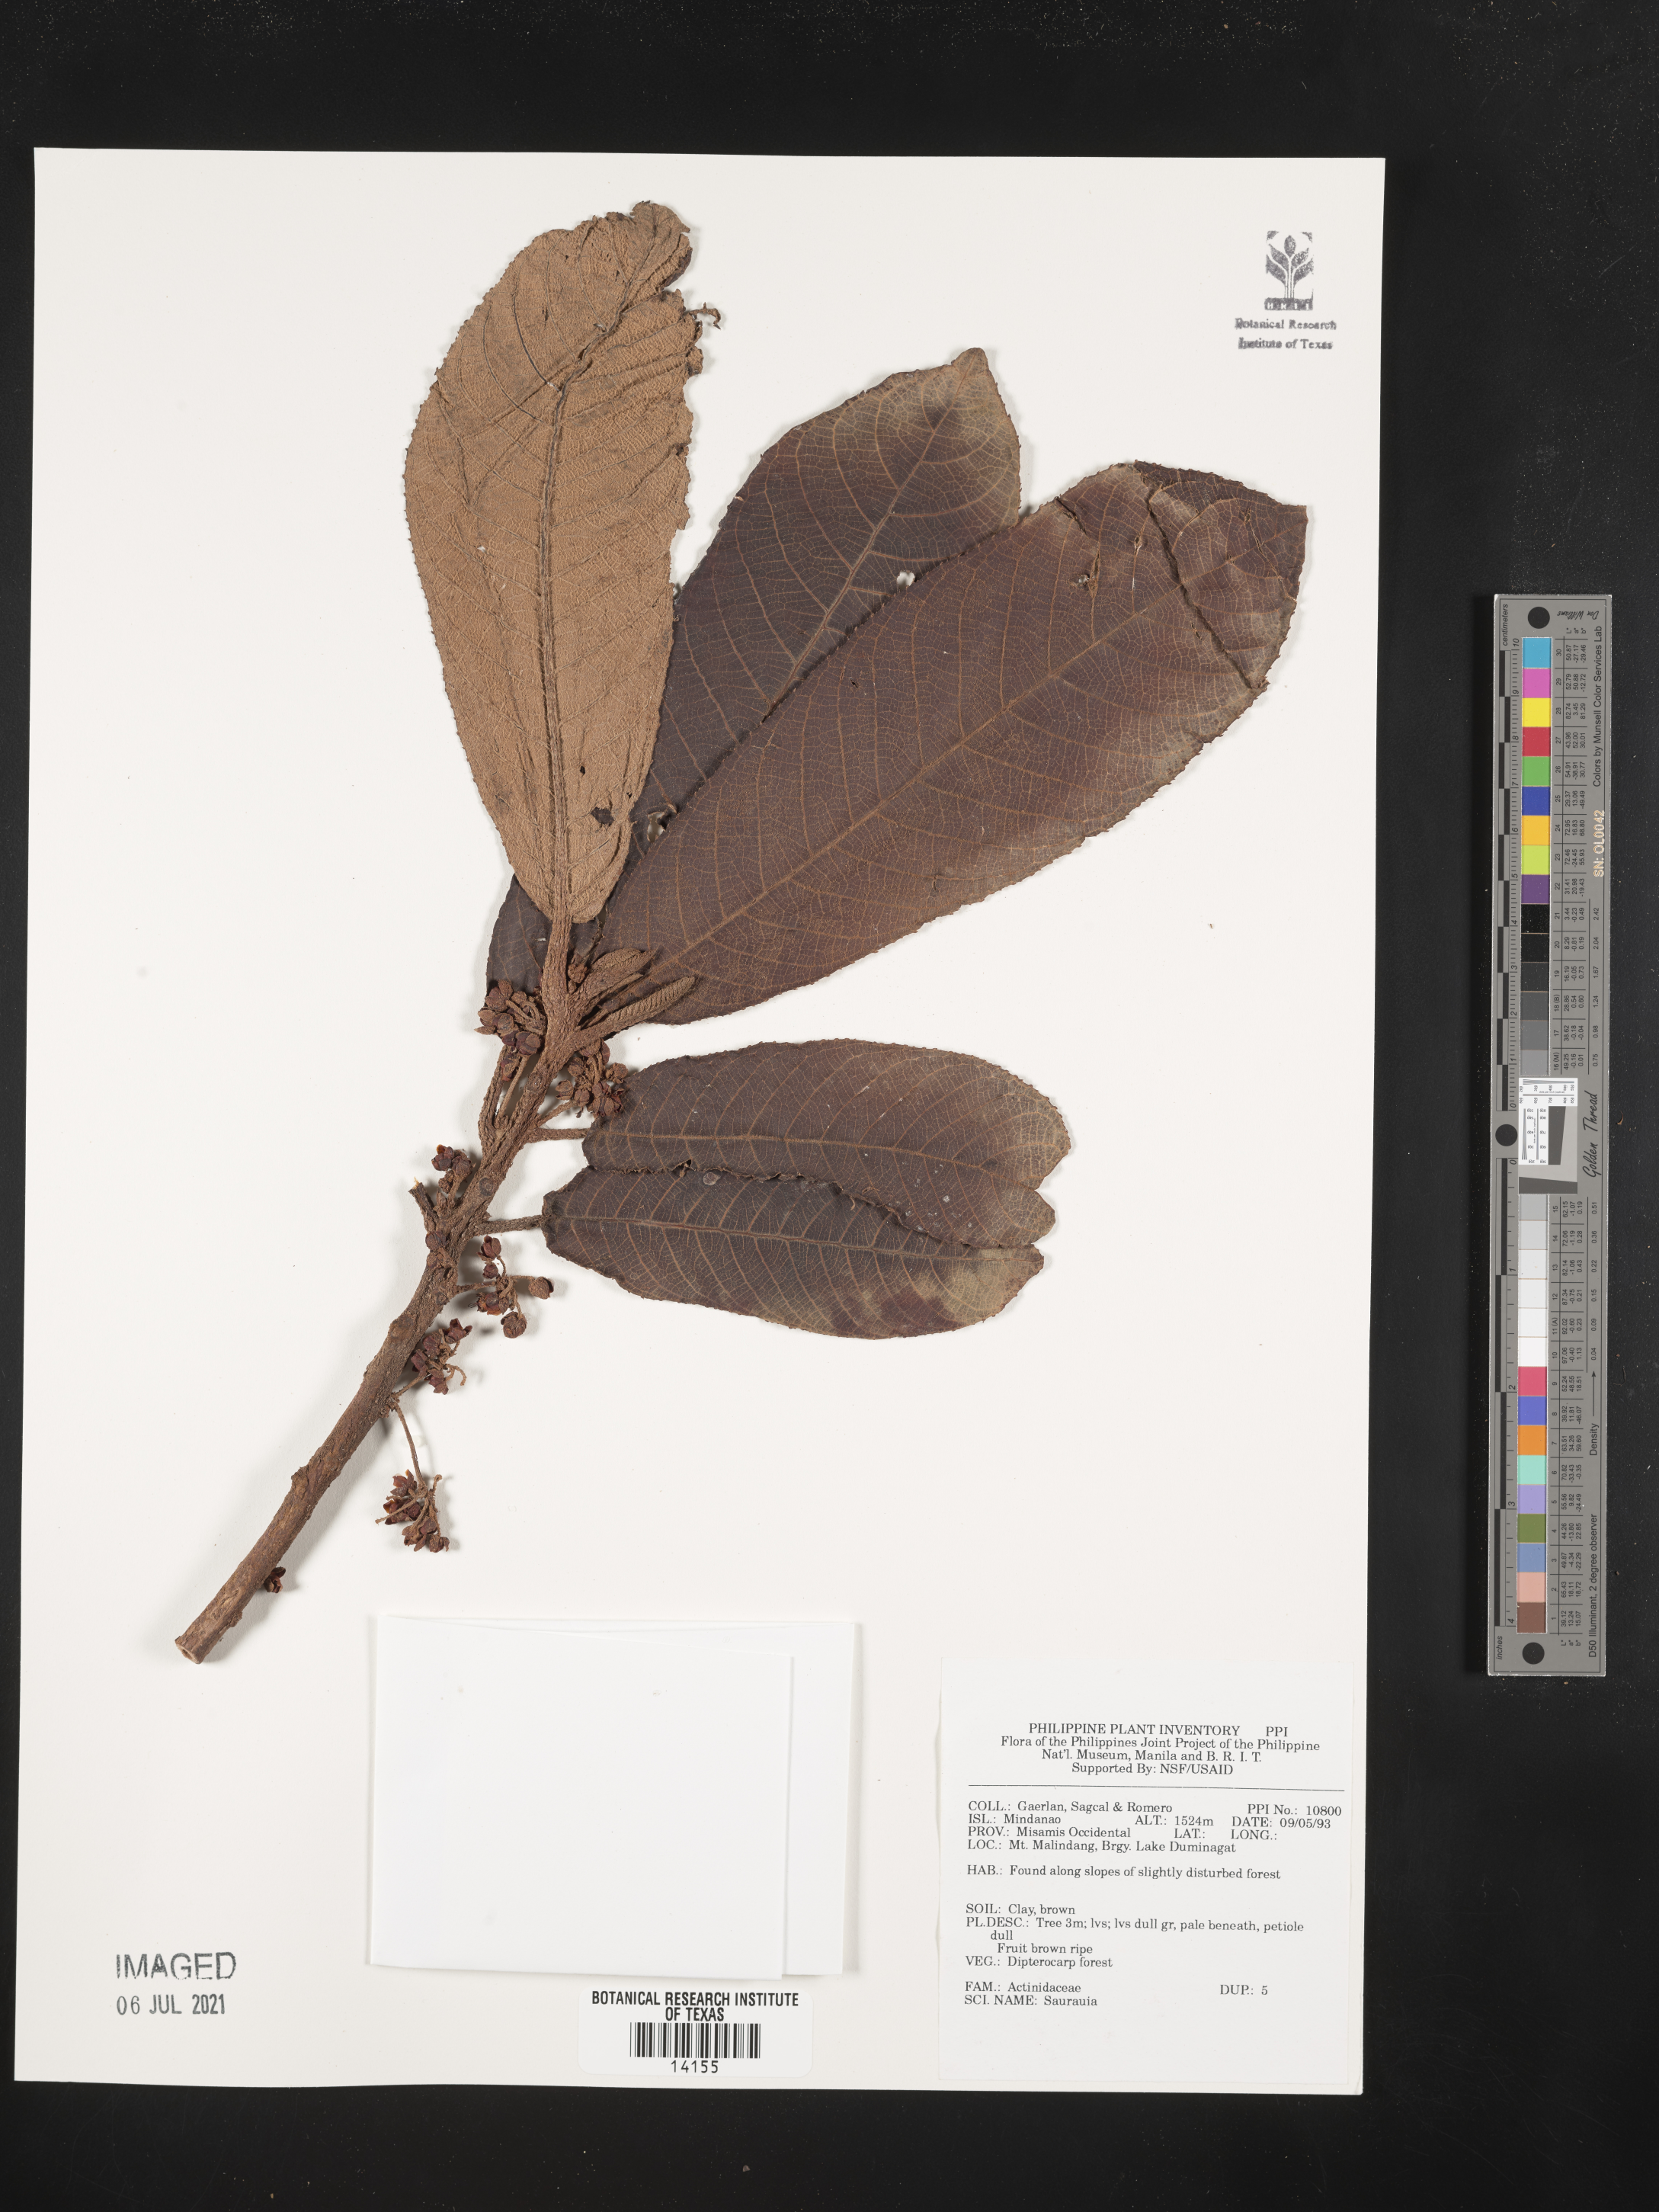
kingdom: Plantae
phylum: Tracheophyta
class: Magnoliopsida
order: Ericales
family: Actinidiaceae
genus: Saurauia
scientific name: Saurauia
